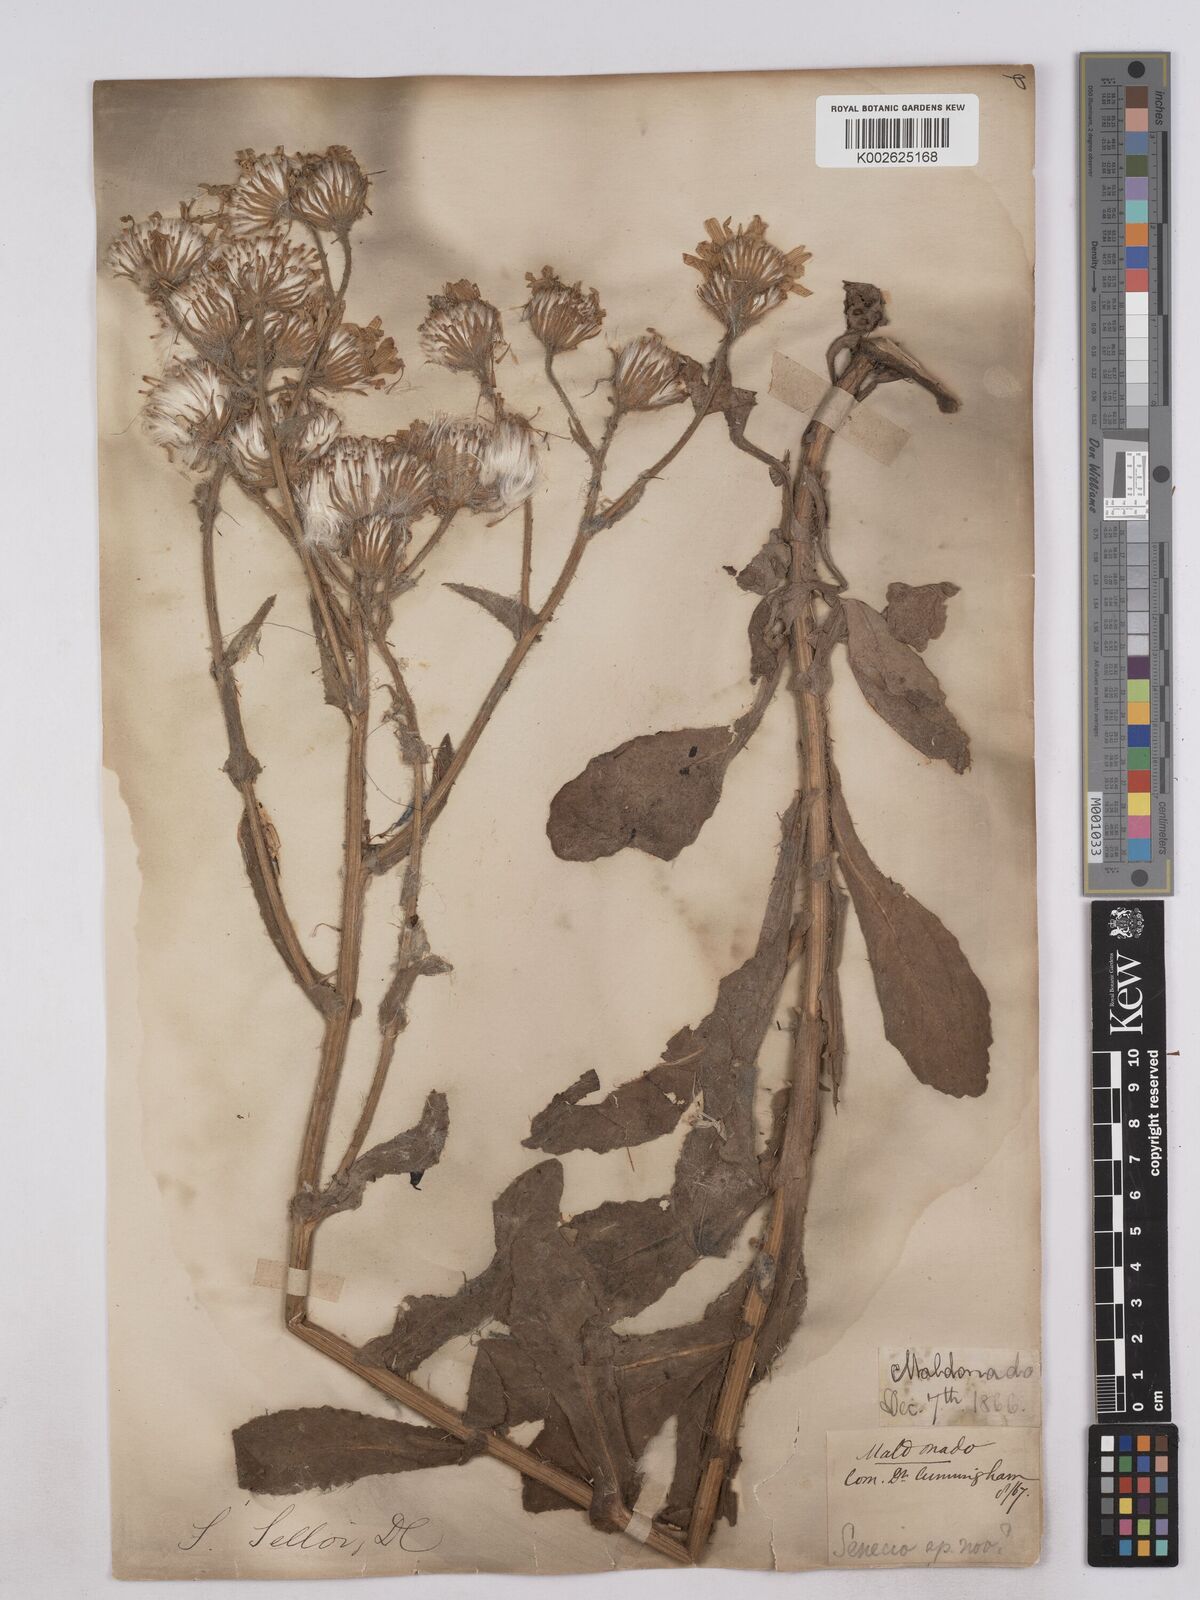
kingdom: Plantae
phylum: Tracheophyta
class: Magnoliopsida
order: Asterales
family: Asteraceae
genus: Senecio
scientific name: Senecio selloi
